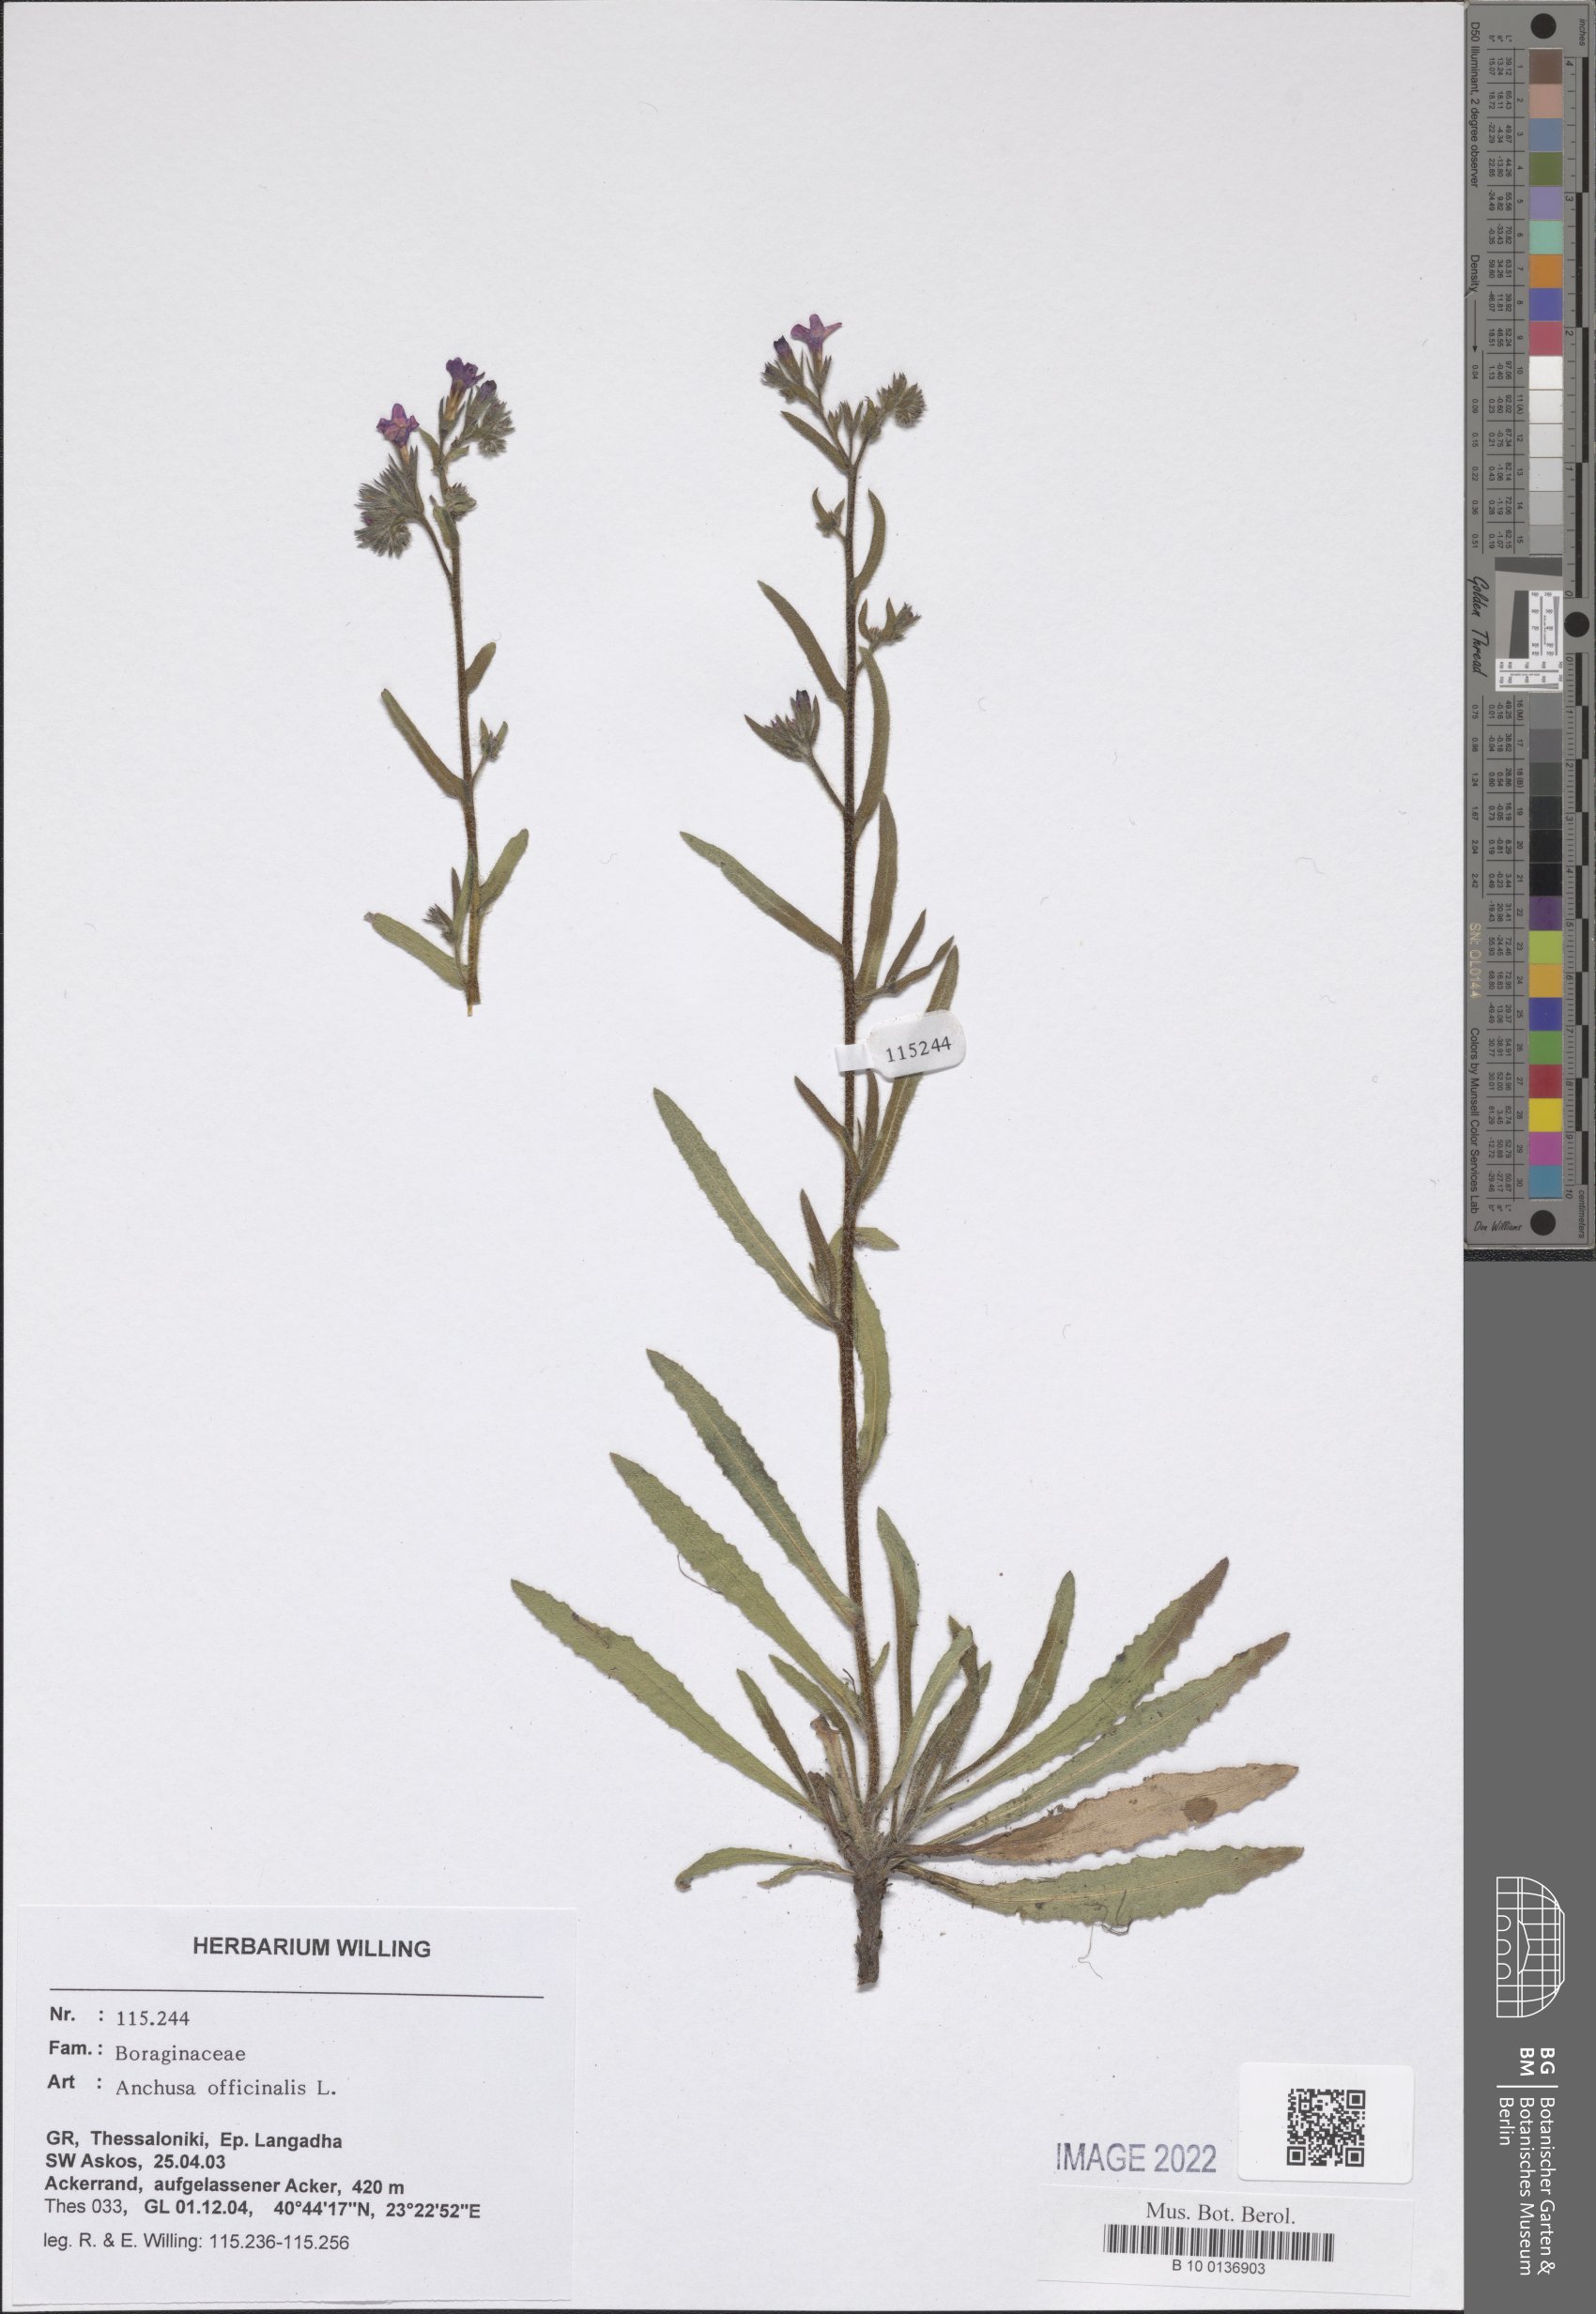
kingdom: Plantae
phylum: Tracheophyta
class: Magnoliopsida
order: Boraginales
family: Boraginaceae
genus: Anchusa
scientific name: Anchusa officinalis
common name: Alkanet
